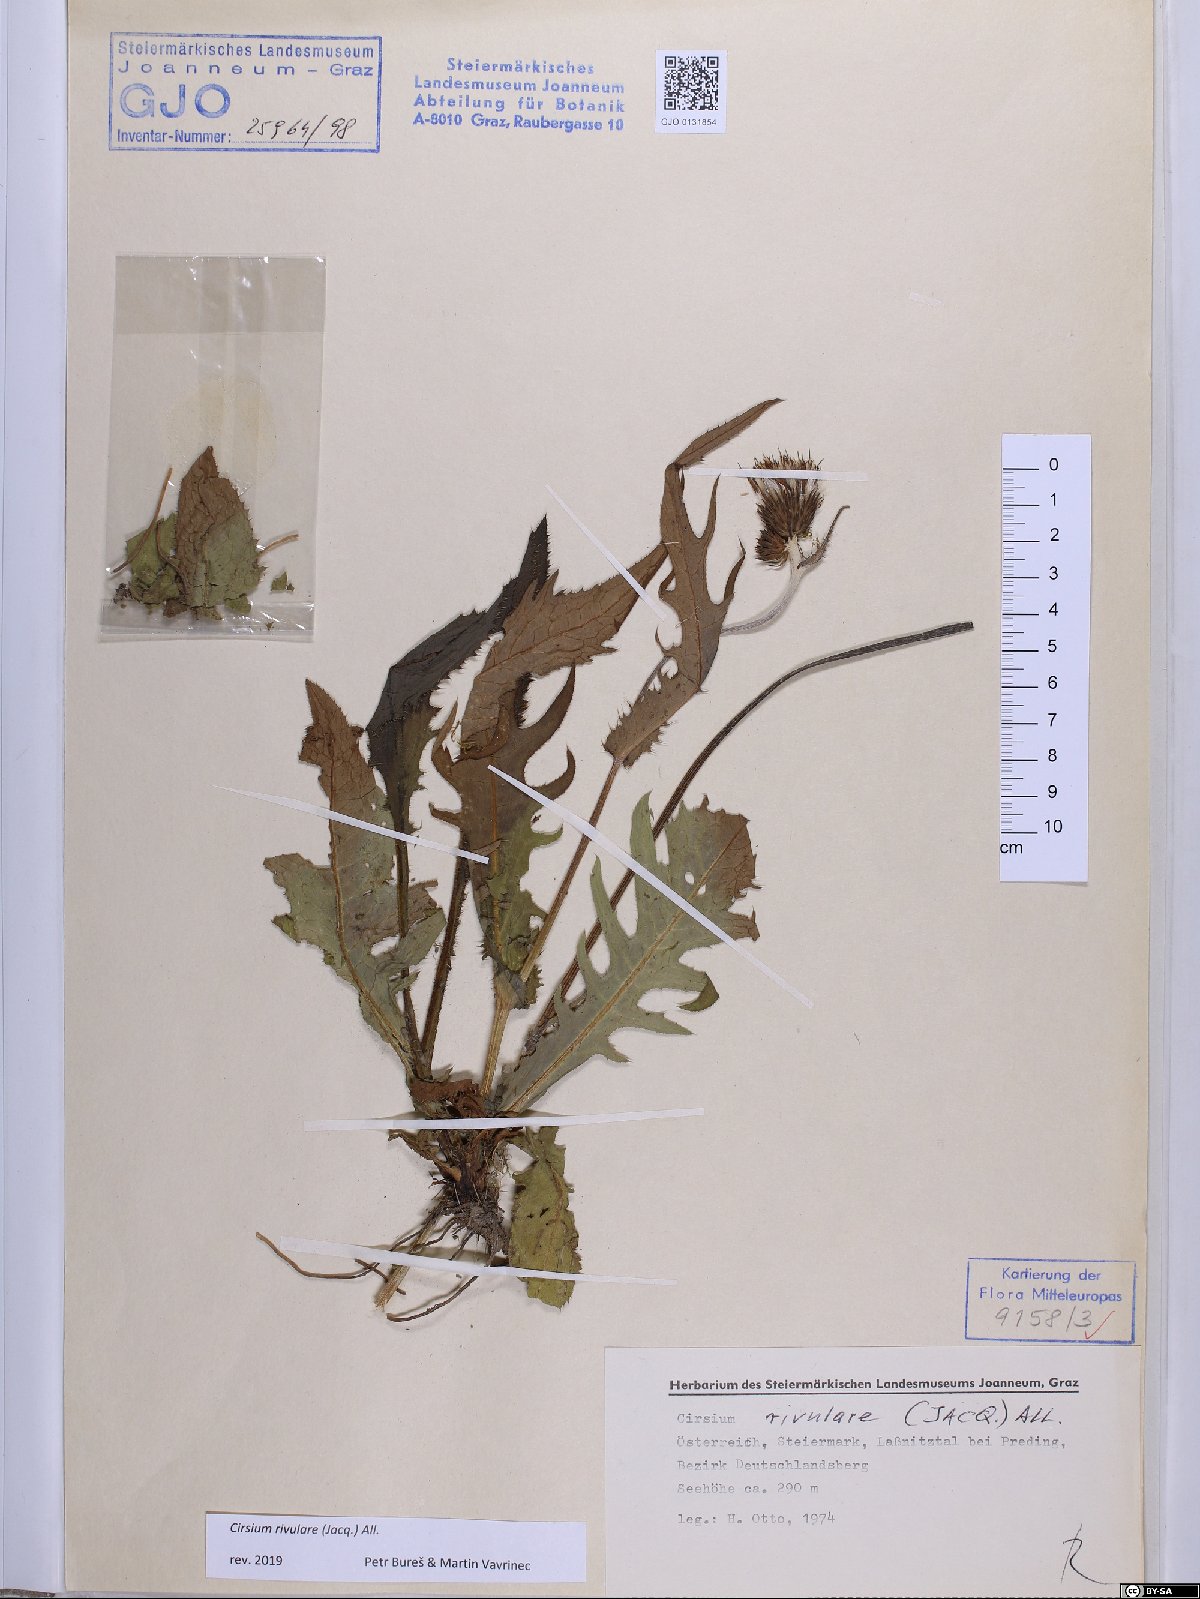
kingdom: Plantae
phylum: Tracheophyta
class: Magnoliopsida
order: Asterales
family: Asteraceae
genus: Cirsium
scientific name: Cirsium rivulare
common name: Brook thistle
